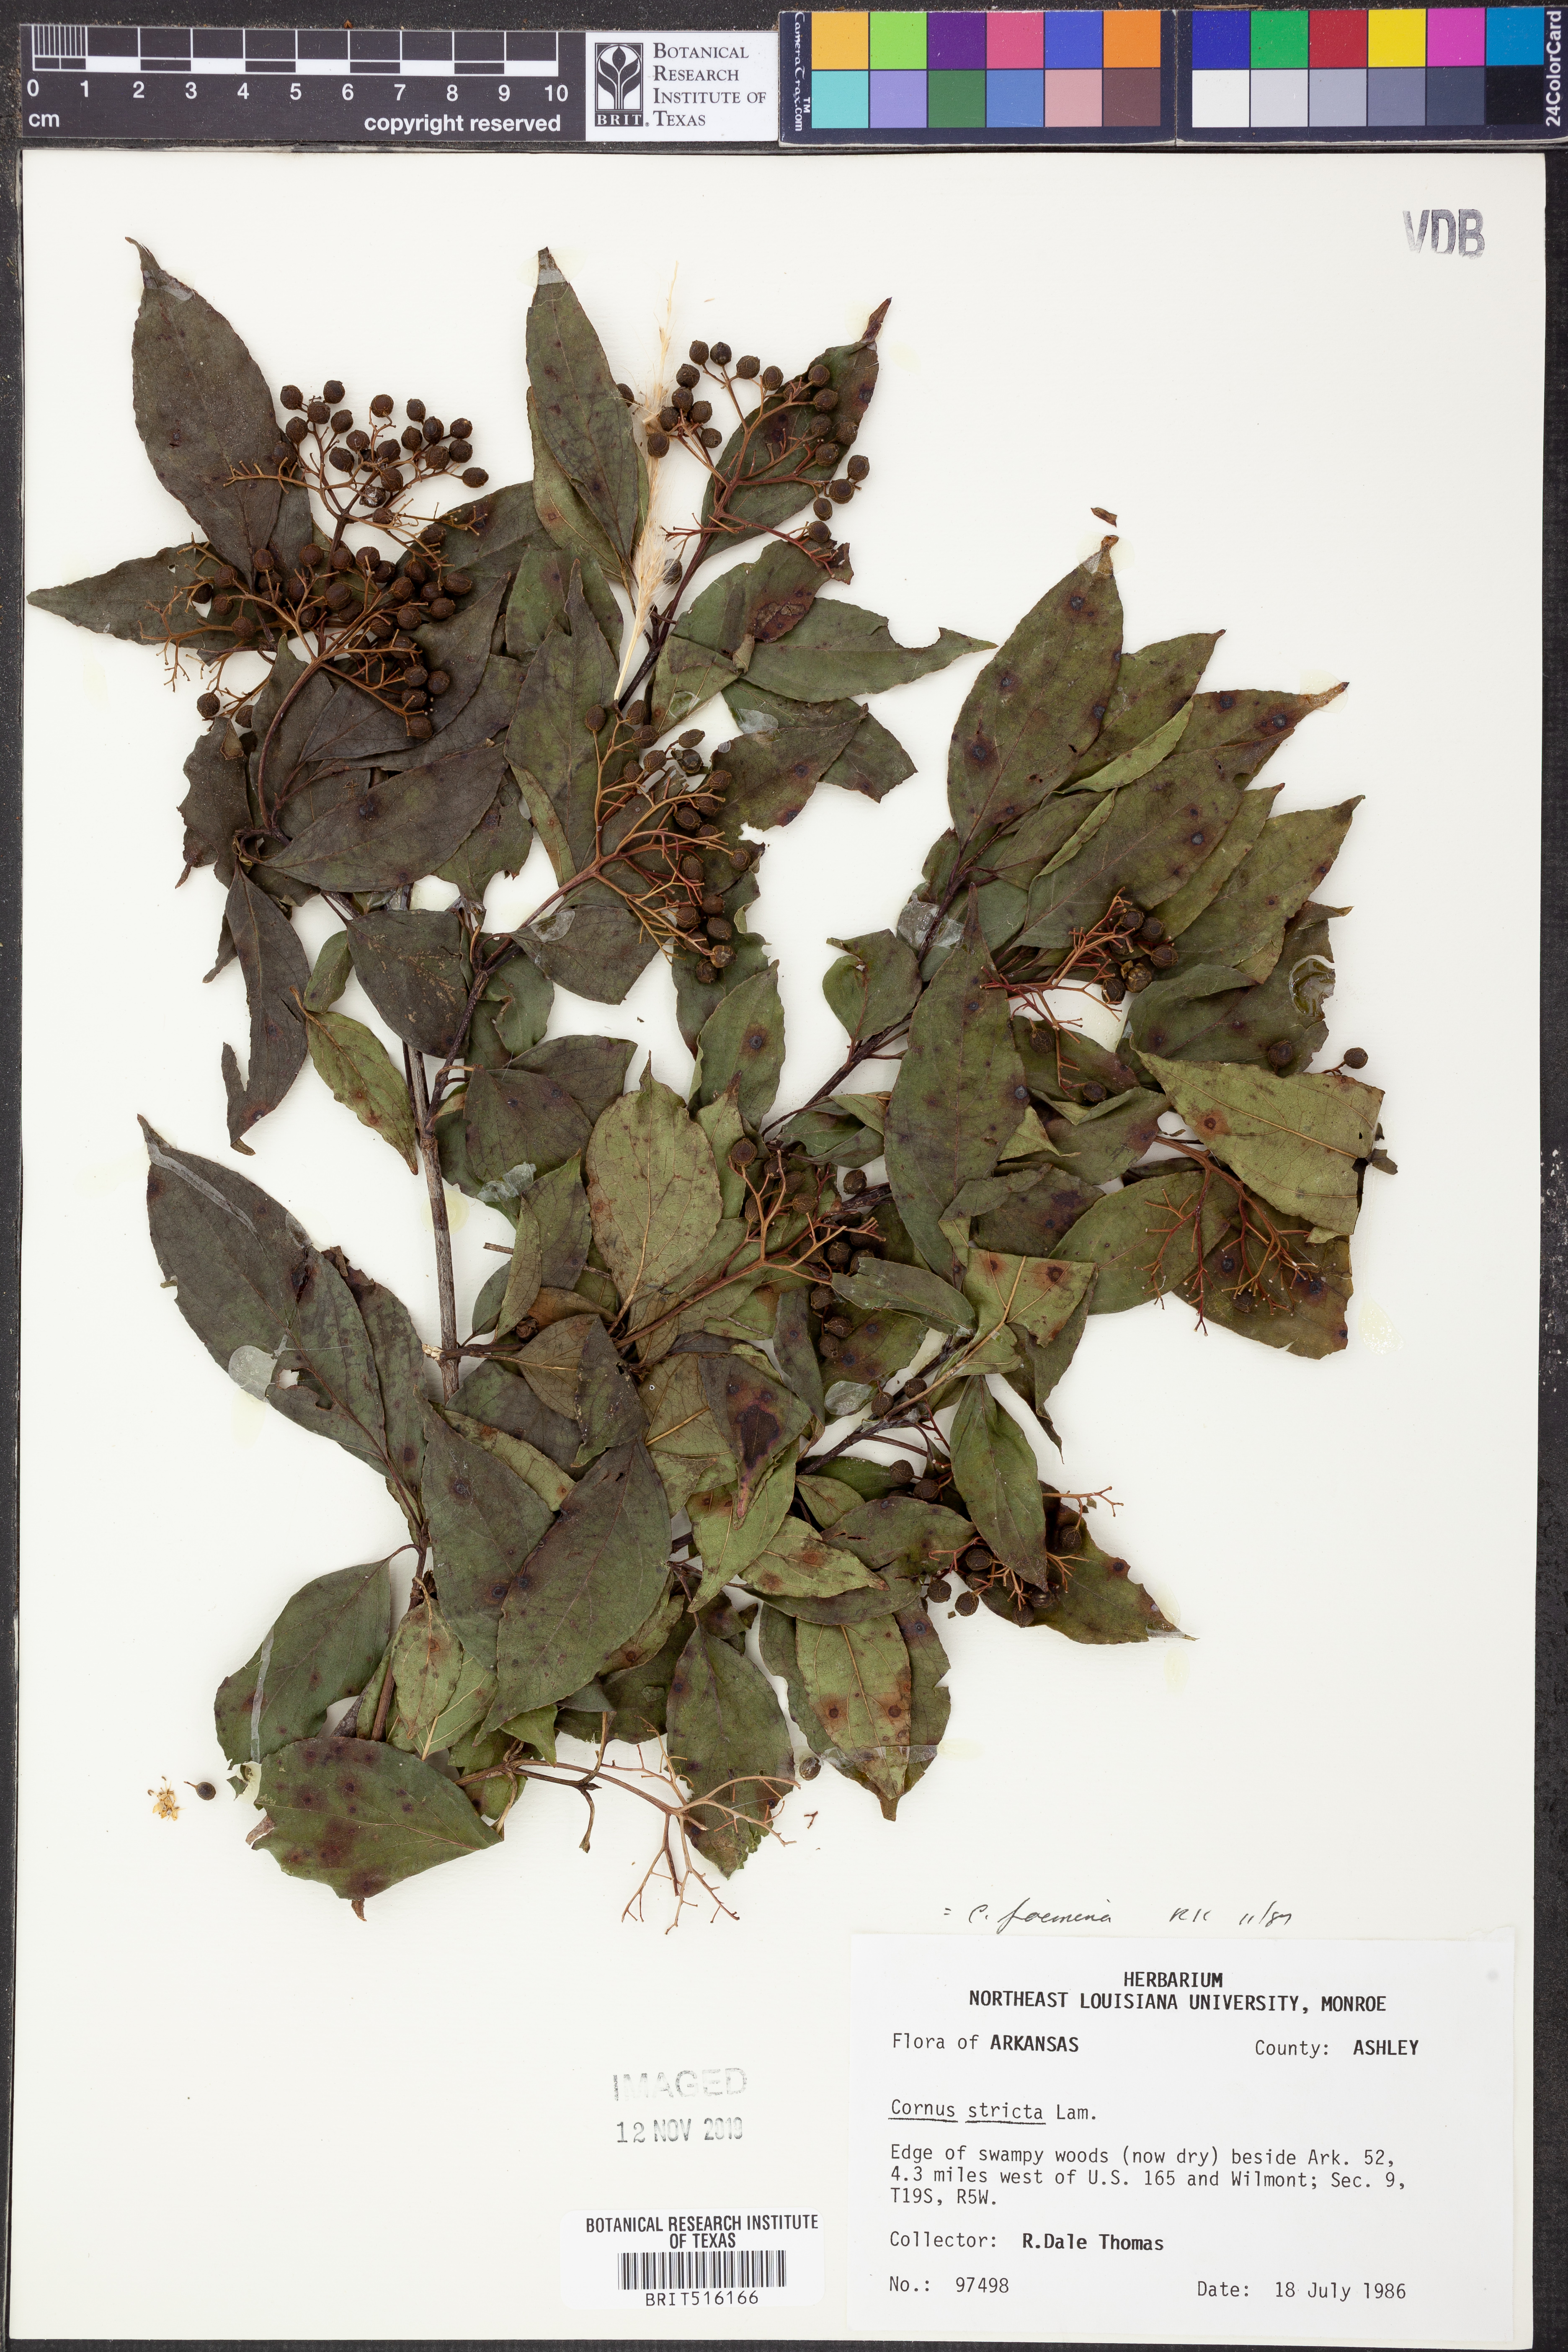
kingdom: Plantae
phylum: Tracheophyta
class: Magnoliopsida
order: Cornales
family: Cornaceae
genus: Cornus
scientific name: Cornus foemina
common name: Swamp dogwood
